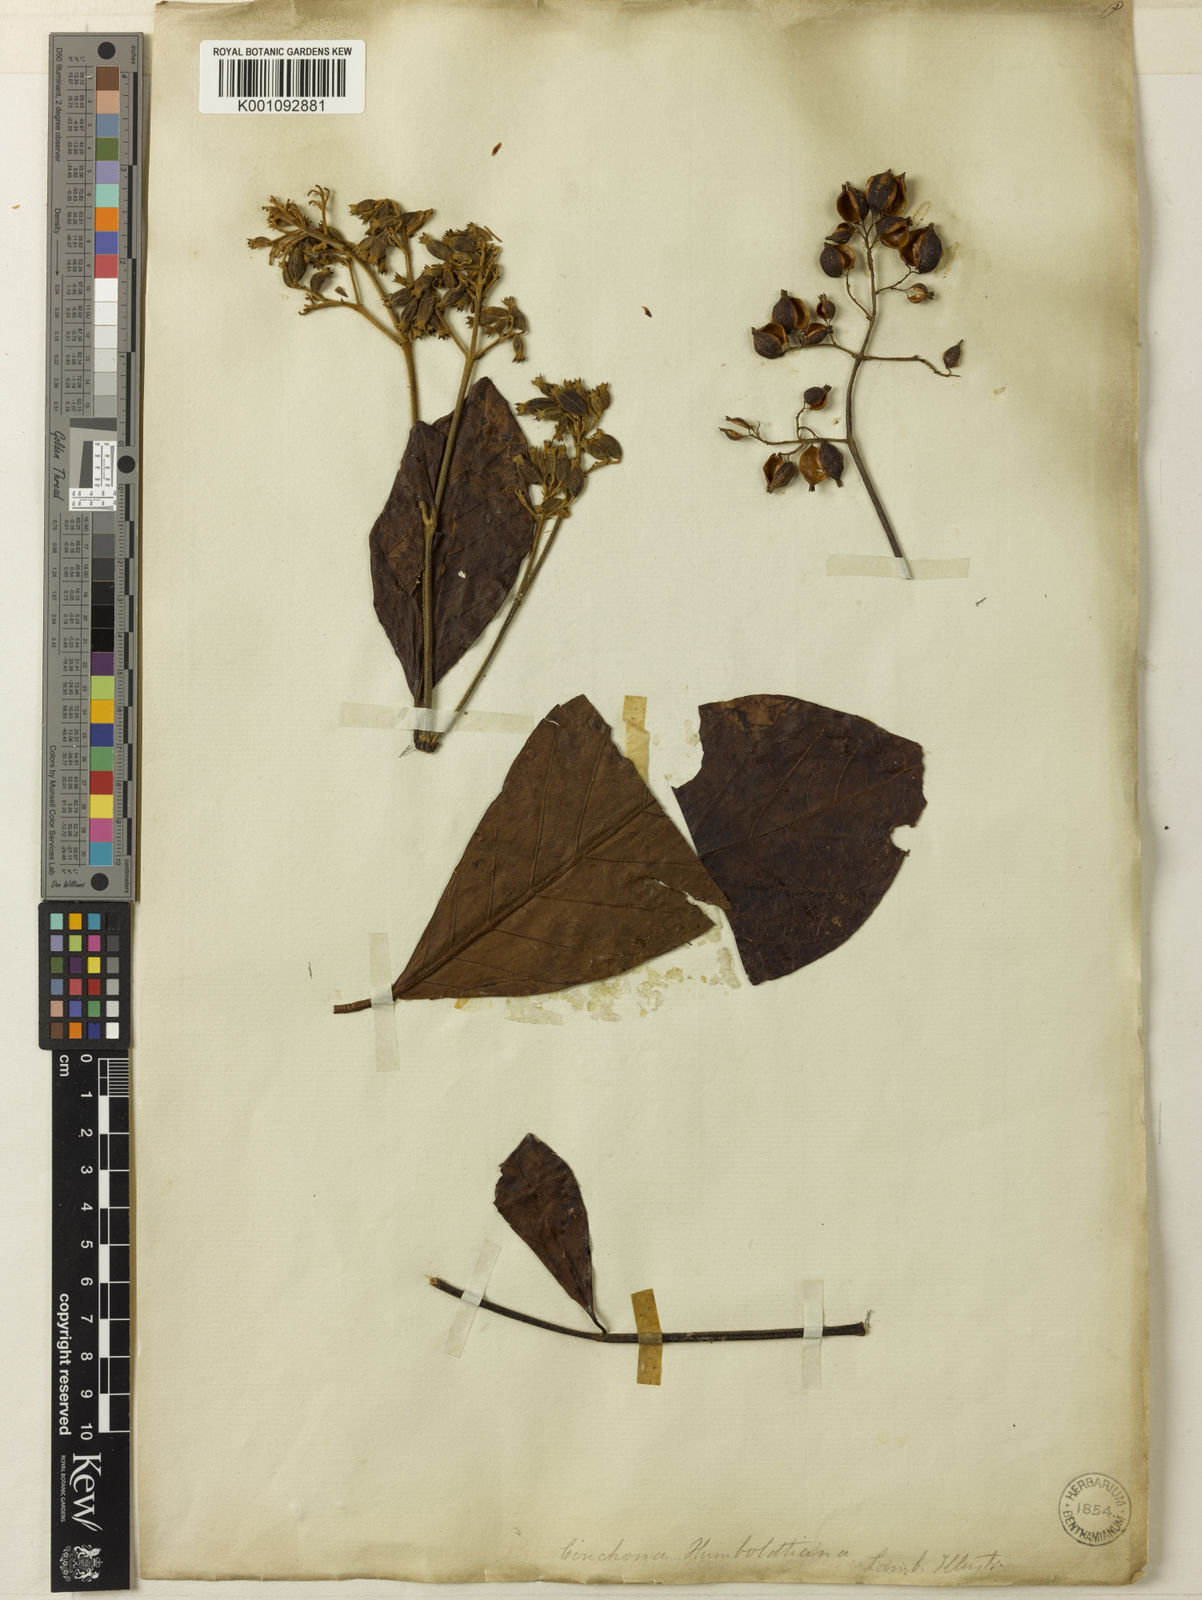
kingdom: Plantae
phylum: Tracheophyta
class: Magnoliopsida
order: Gentianales
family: Rubiaceae
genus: Cinchona
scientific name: Cinchona villosa
